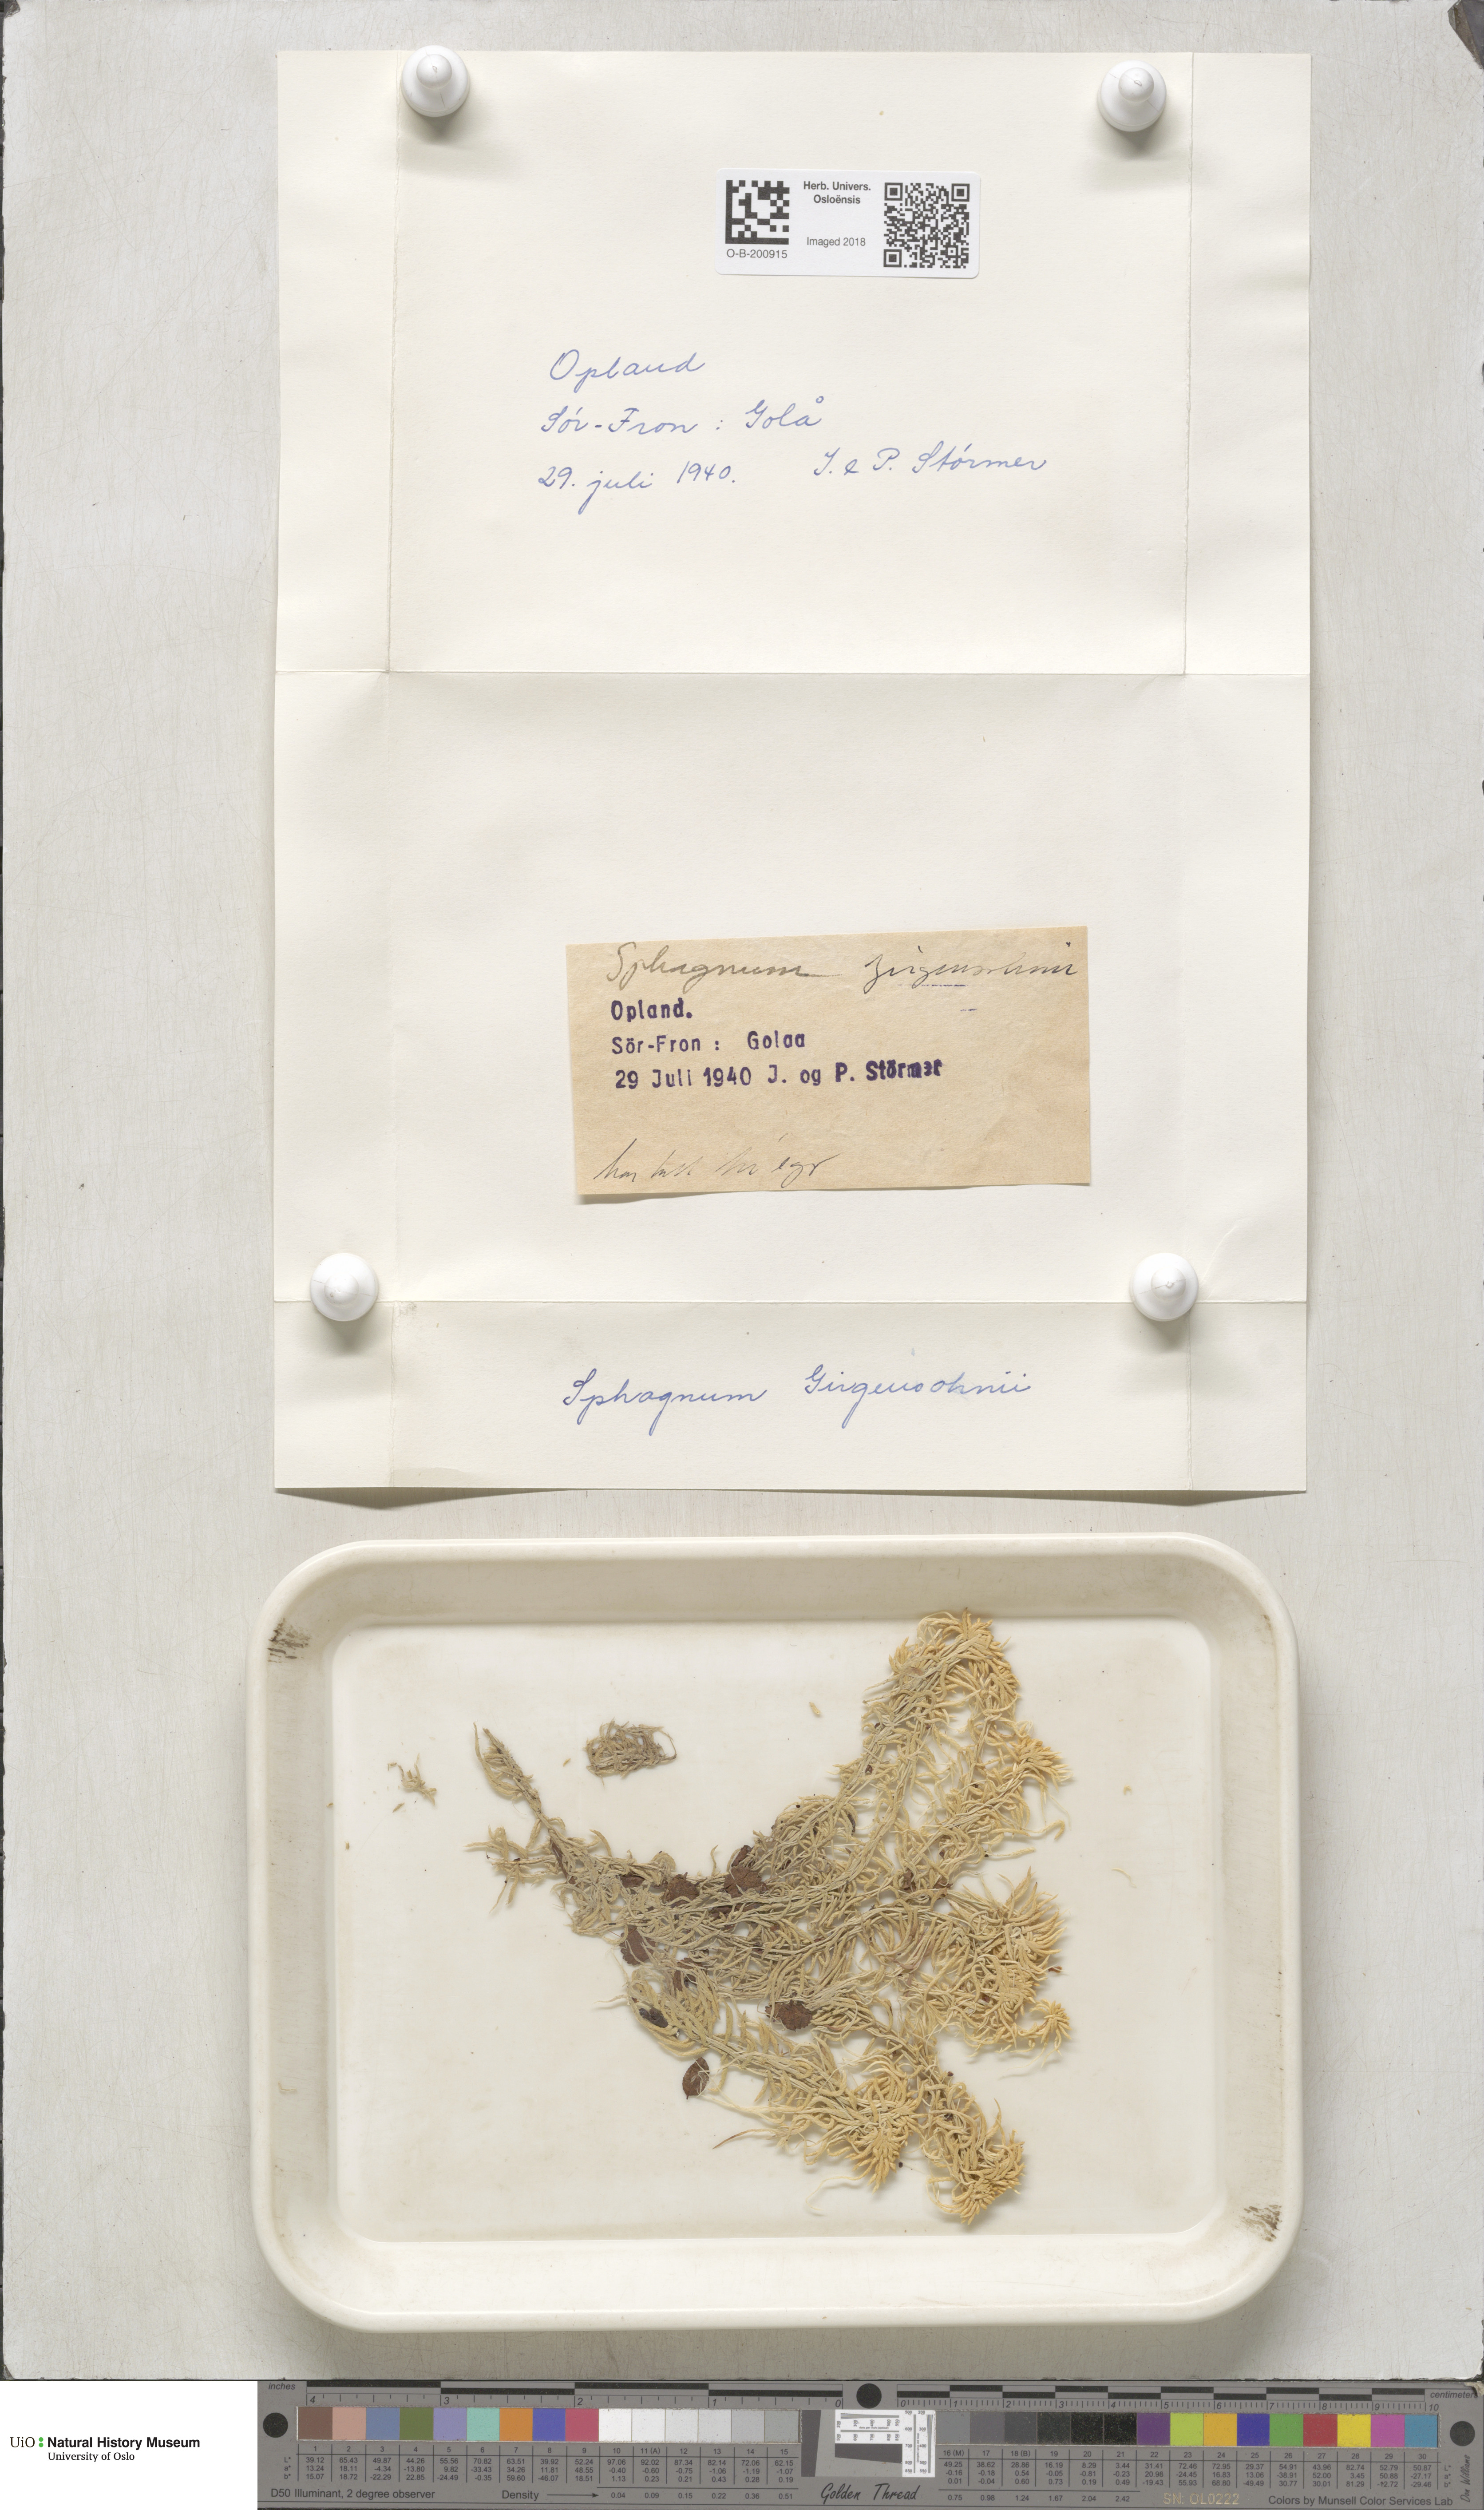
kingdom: Plantae
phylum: Bryophyta
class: Sphagnopsida
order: Sphagnales
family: Sphagnaceae
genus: Sphagnum
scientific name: Sphagnum girgensohnii
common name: Girgensohn's peat moss
